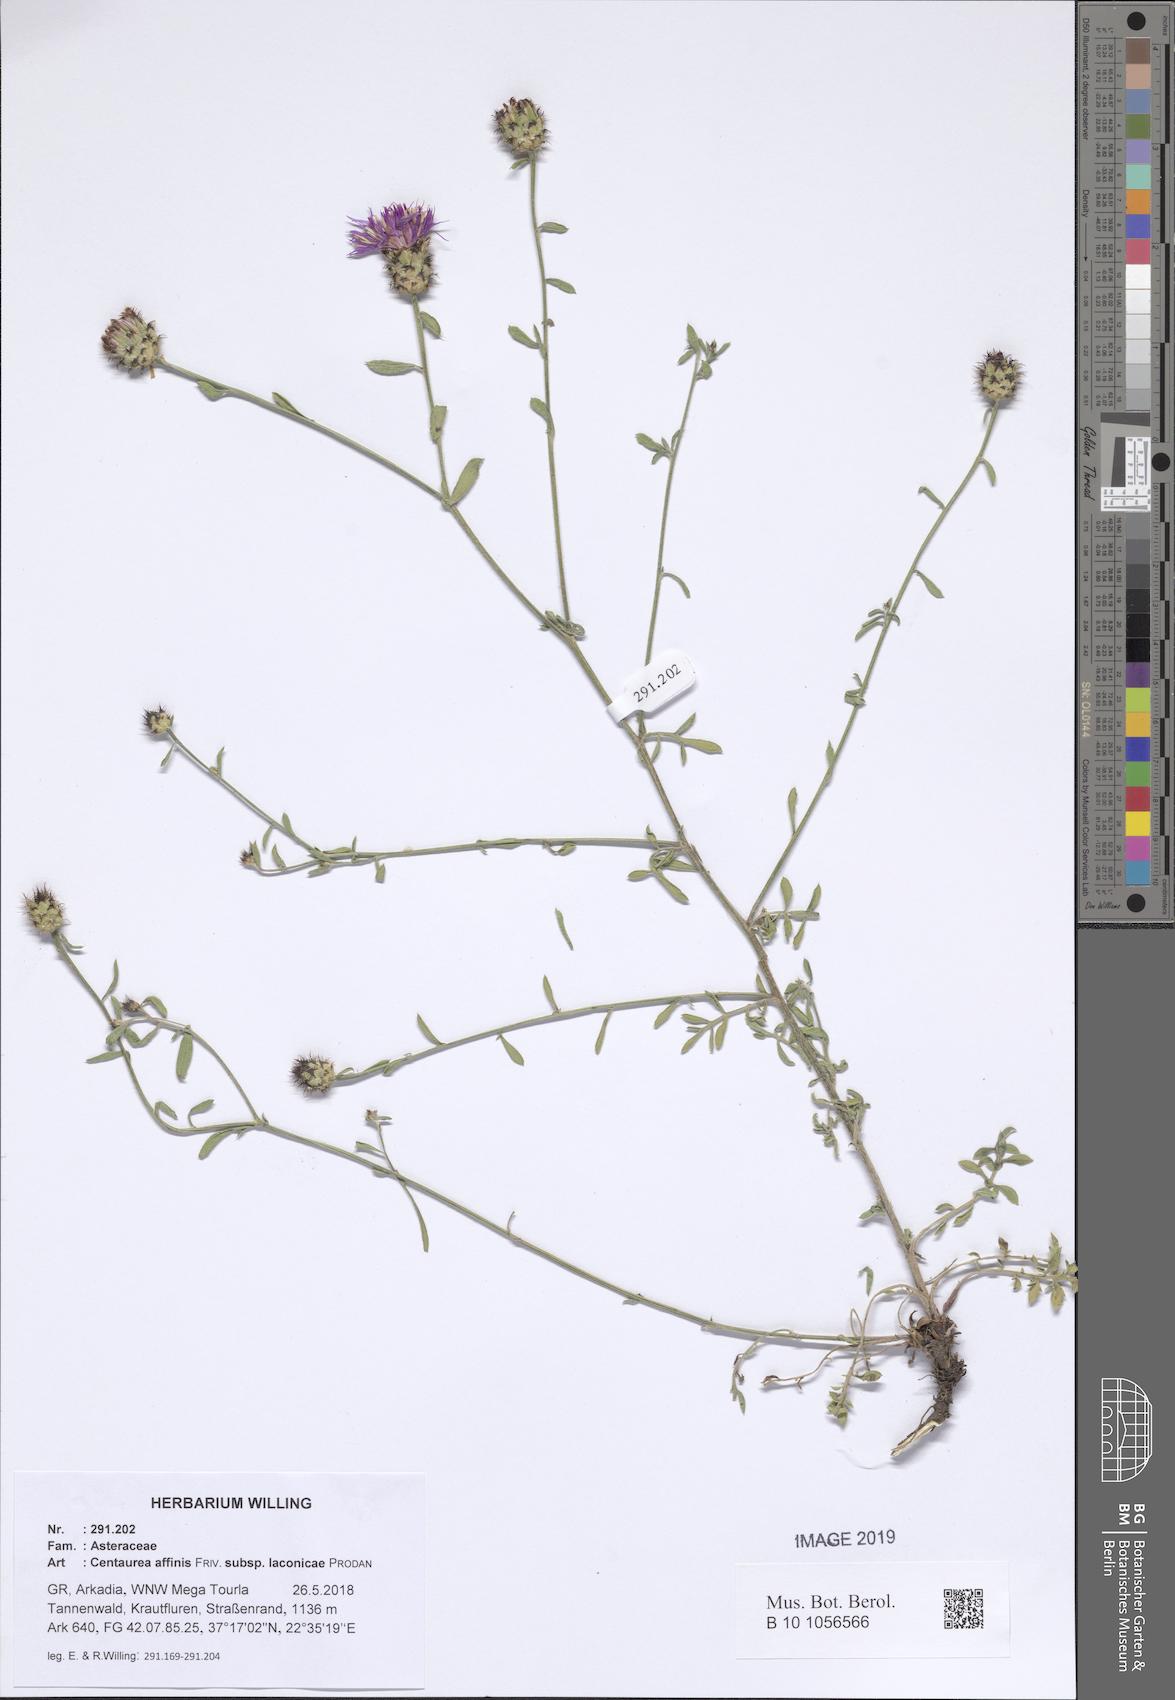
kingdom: Plantae
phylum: Tracheophyta
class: Magnoliopsida
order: Asterales
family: Asteraceae
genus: Centaurea
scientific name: Centaurea affinis
